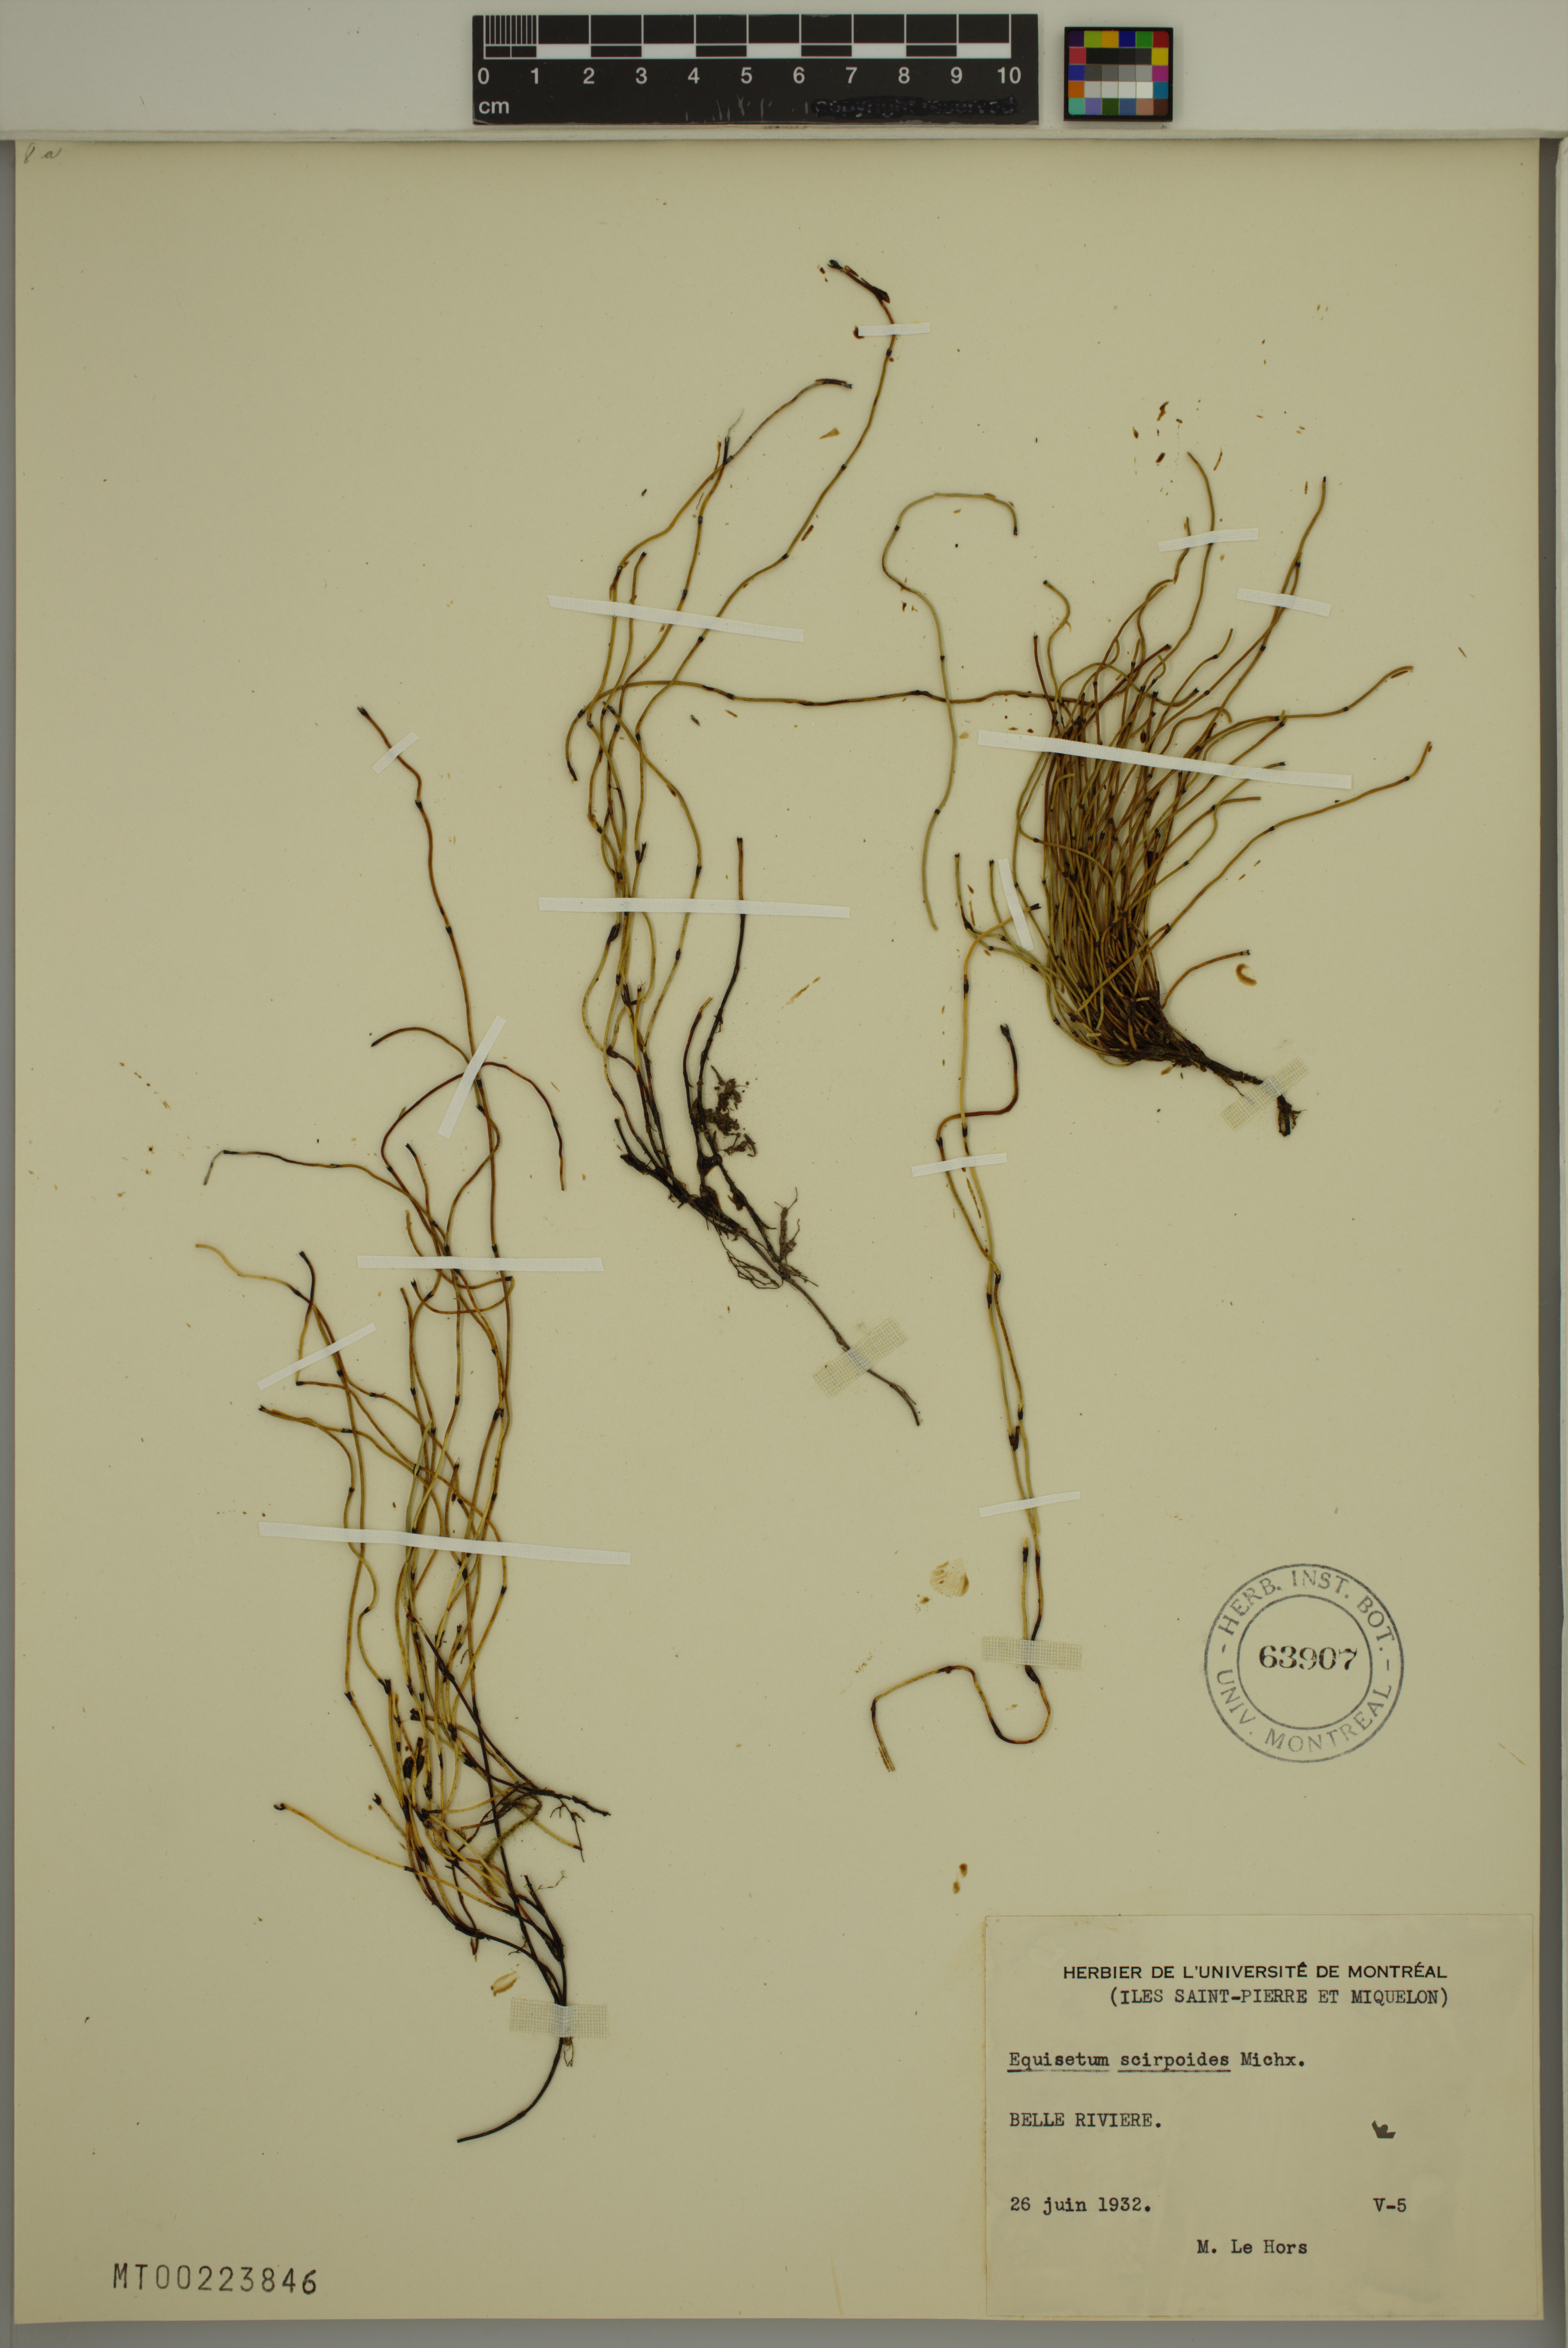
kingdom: Plantae
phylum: Tracheophyta
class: Polypodiopsida
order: Equisetales
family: Equisetaceae
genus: Equisetum
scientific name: Equisetum scirpoides
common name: Delicate horsetail
